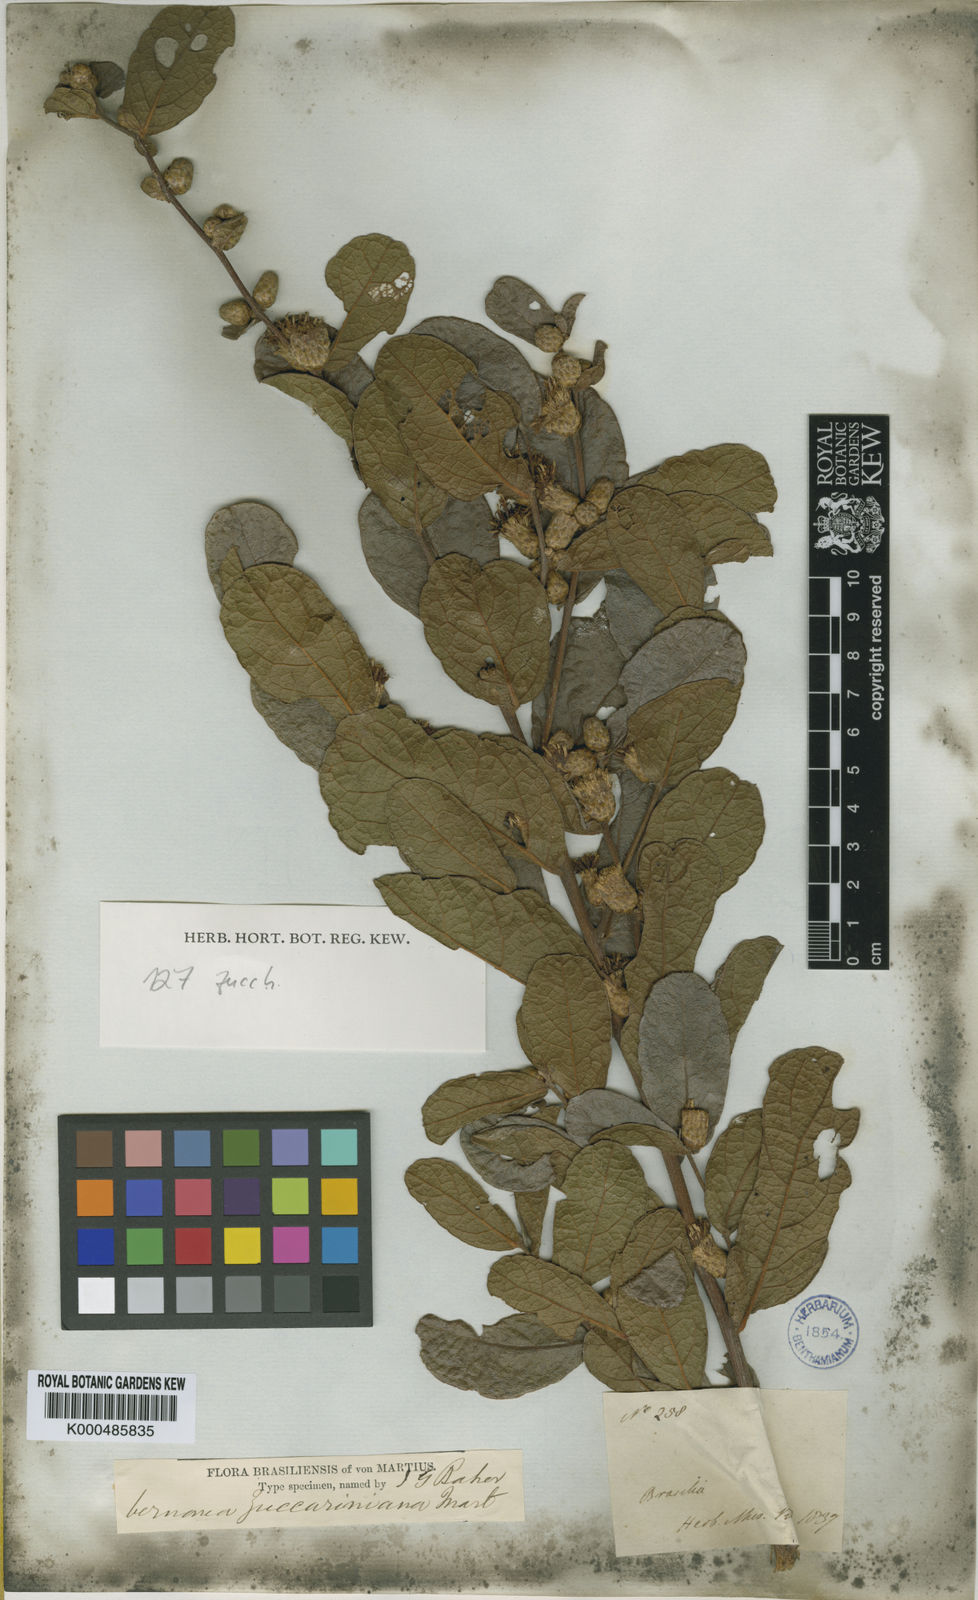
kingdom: Plantae
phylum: Tracheophyta
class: Magnoliopsida
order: Asterales
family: Asteraceae
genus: Lessingianthus
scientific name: Lessingianthus zuccarinianus
